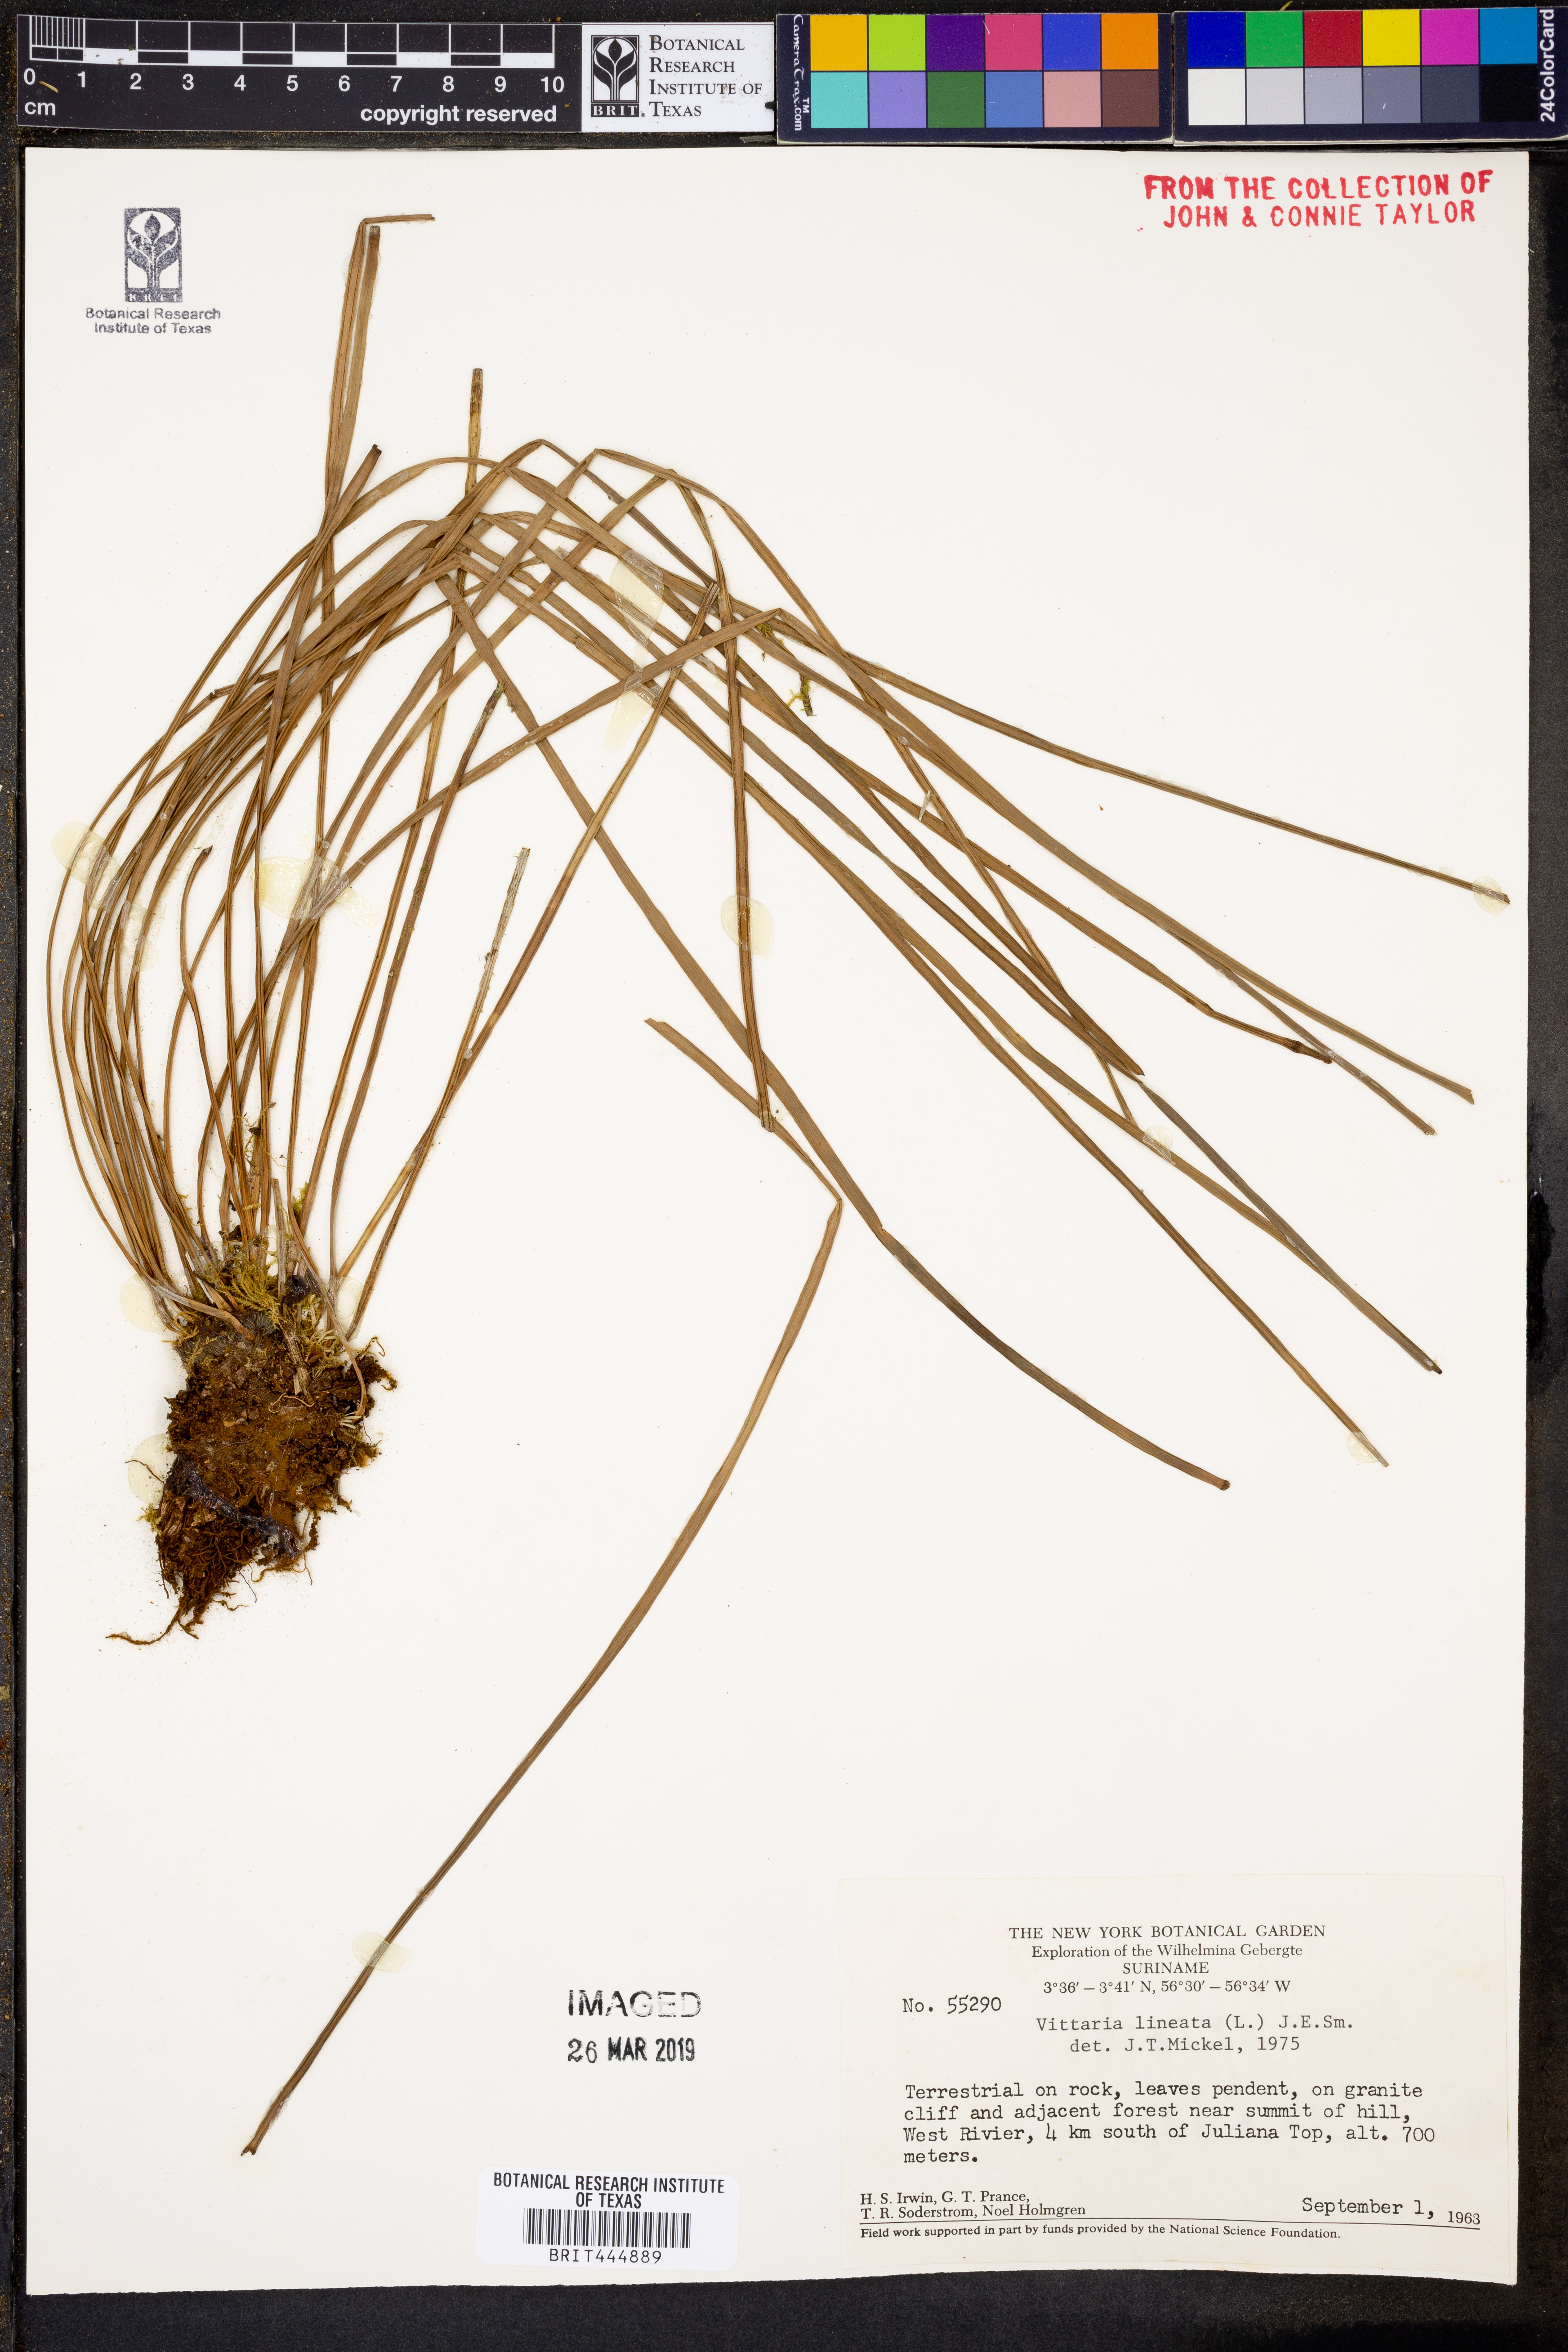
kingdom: Plantae
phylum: Tracheophyta
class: Polypodiopsida
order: Polypodiales
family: Pteridaceae
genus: Vittaria
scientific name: Vittaria lineata
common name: Shoestring fern
